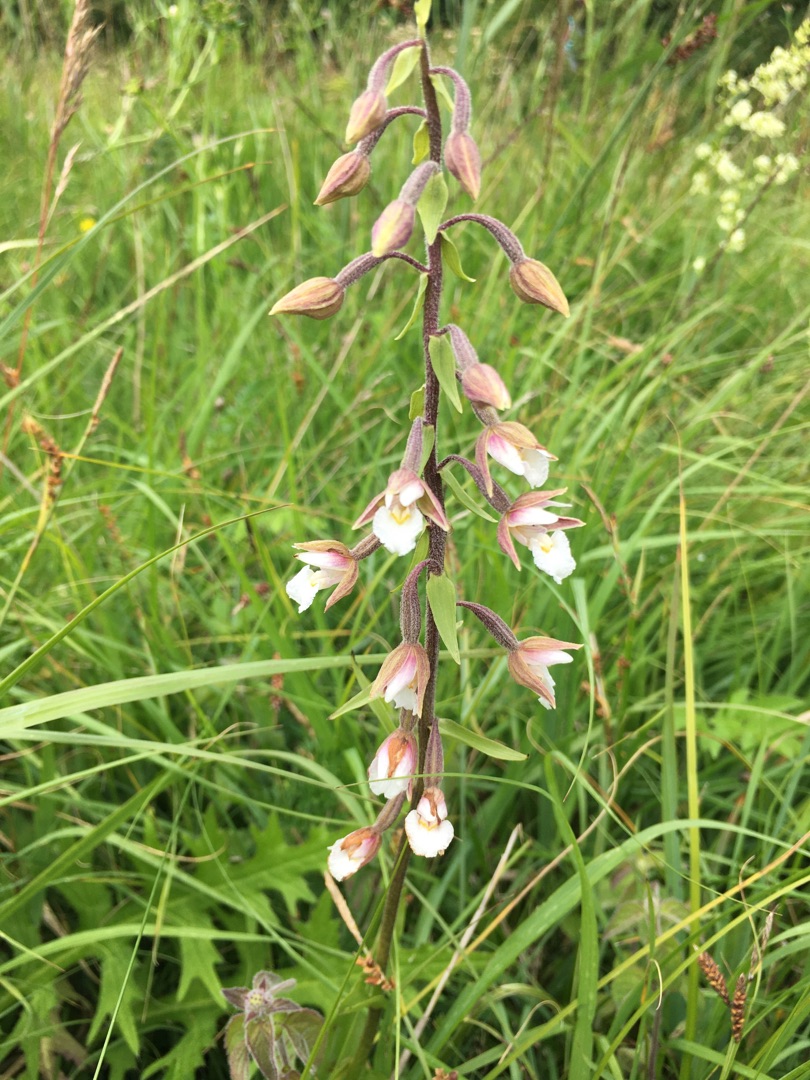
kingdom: Plantae
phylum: Tracheophyta
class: Liliopsida
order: Asparagales
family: Orchidaceae
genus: Epipactis
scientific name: Epipactis palustris
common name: Sump-hullæbe
